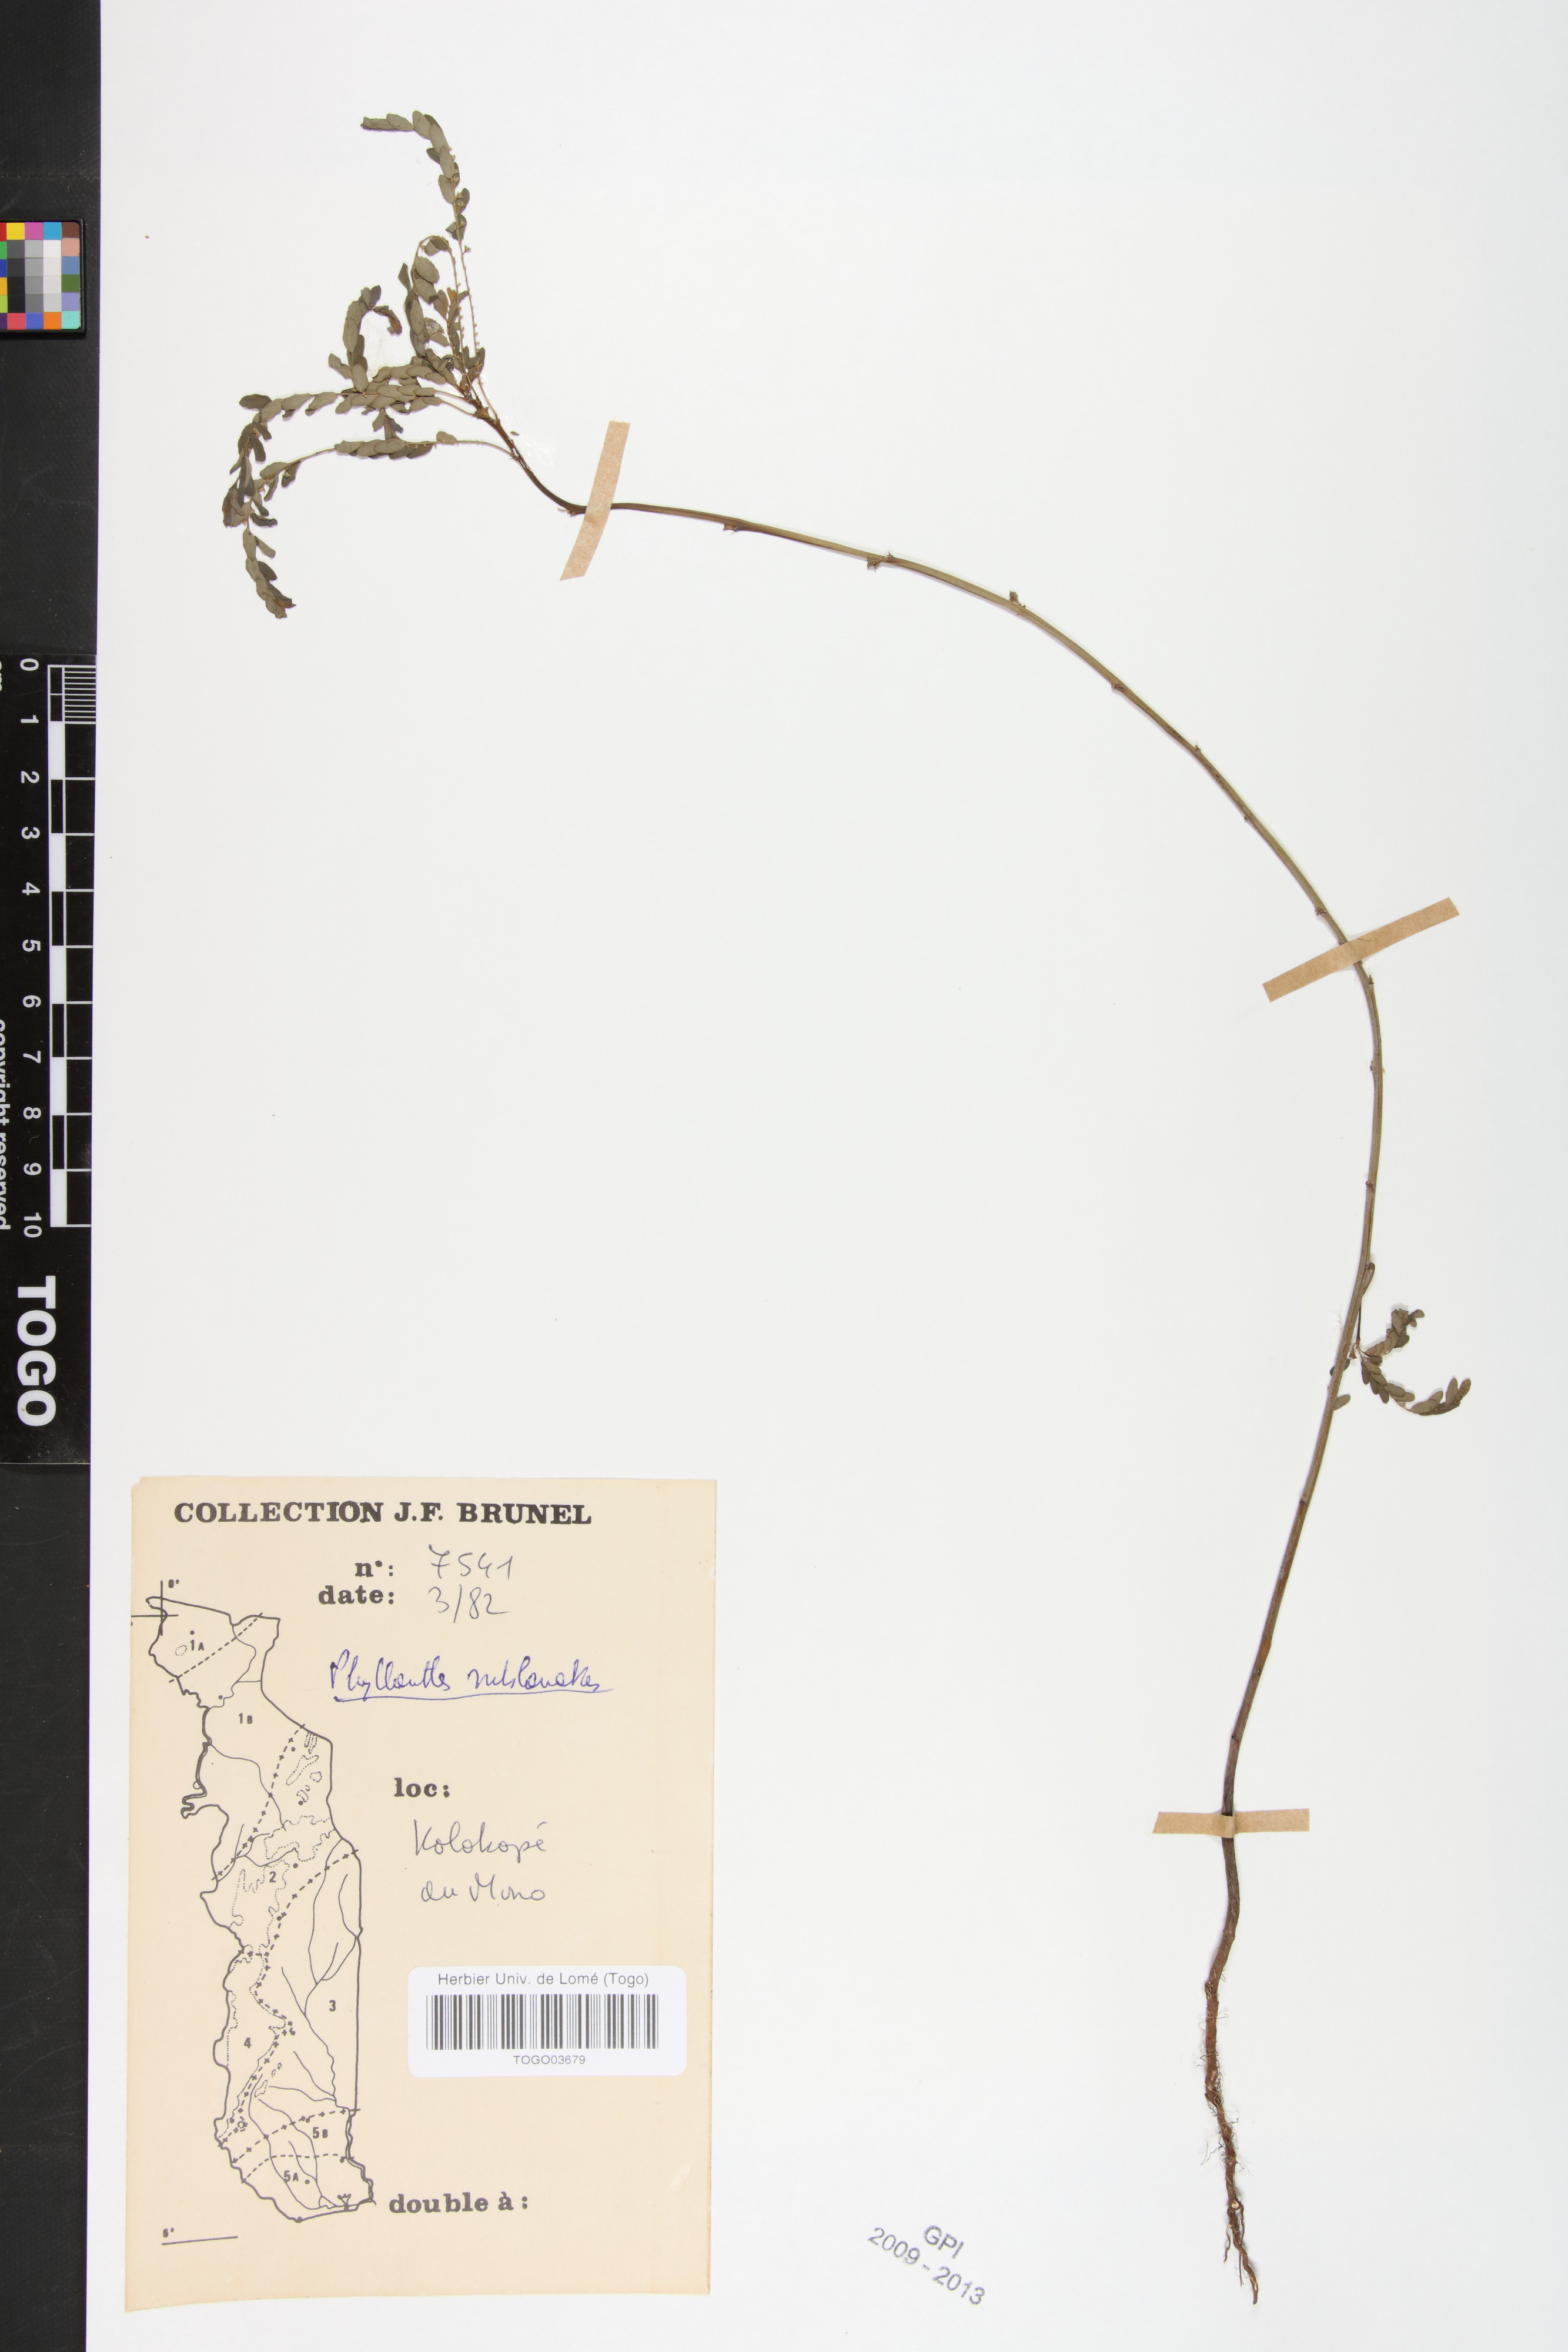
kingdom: Plantae
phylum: Tracheophyta
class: Magnoliopsida
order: Malpighiales
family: Phyllanthaceae
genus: Phyllanthus
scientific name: Phyllanthus sublanatus
